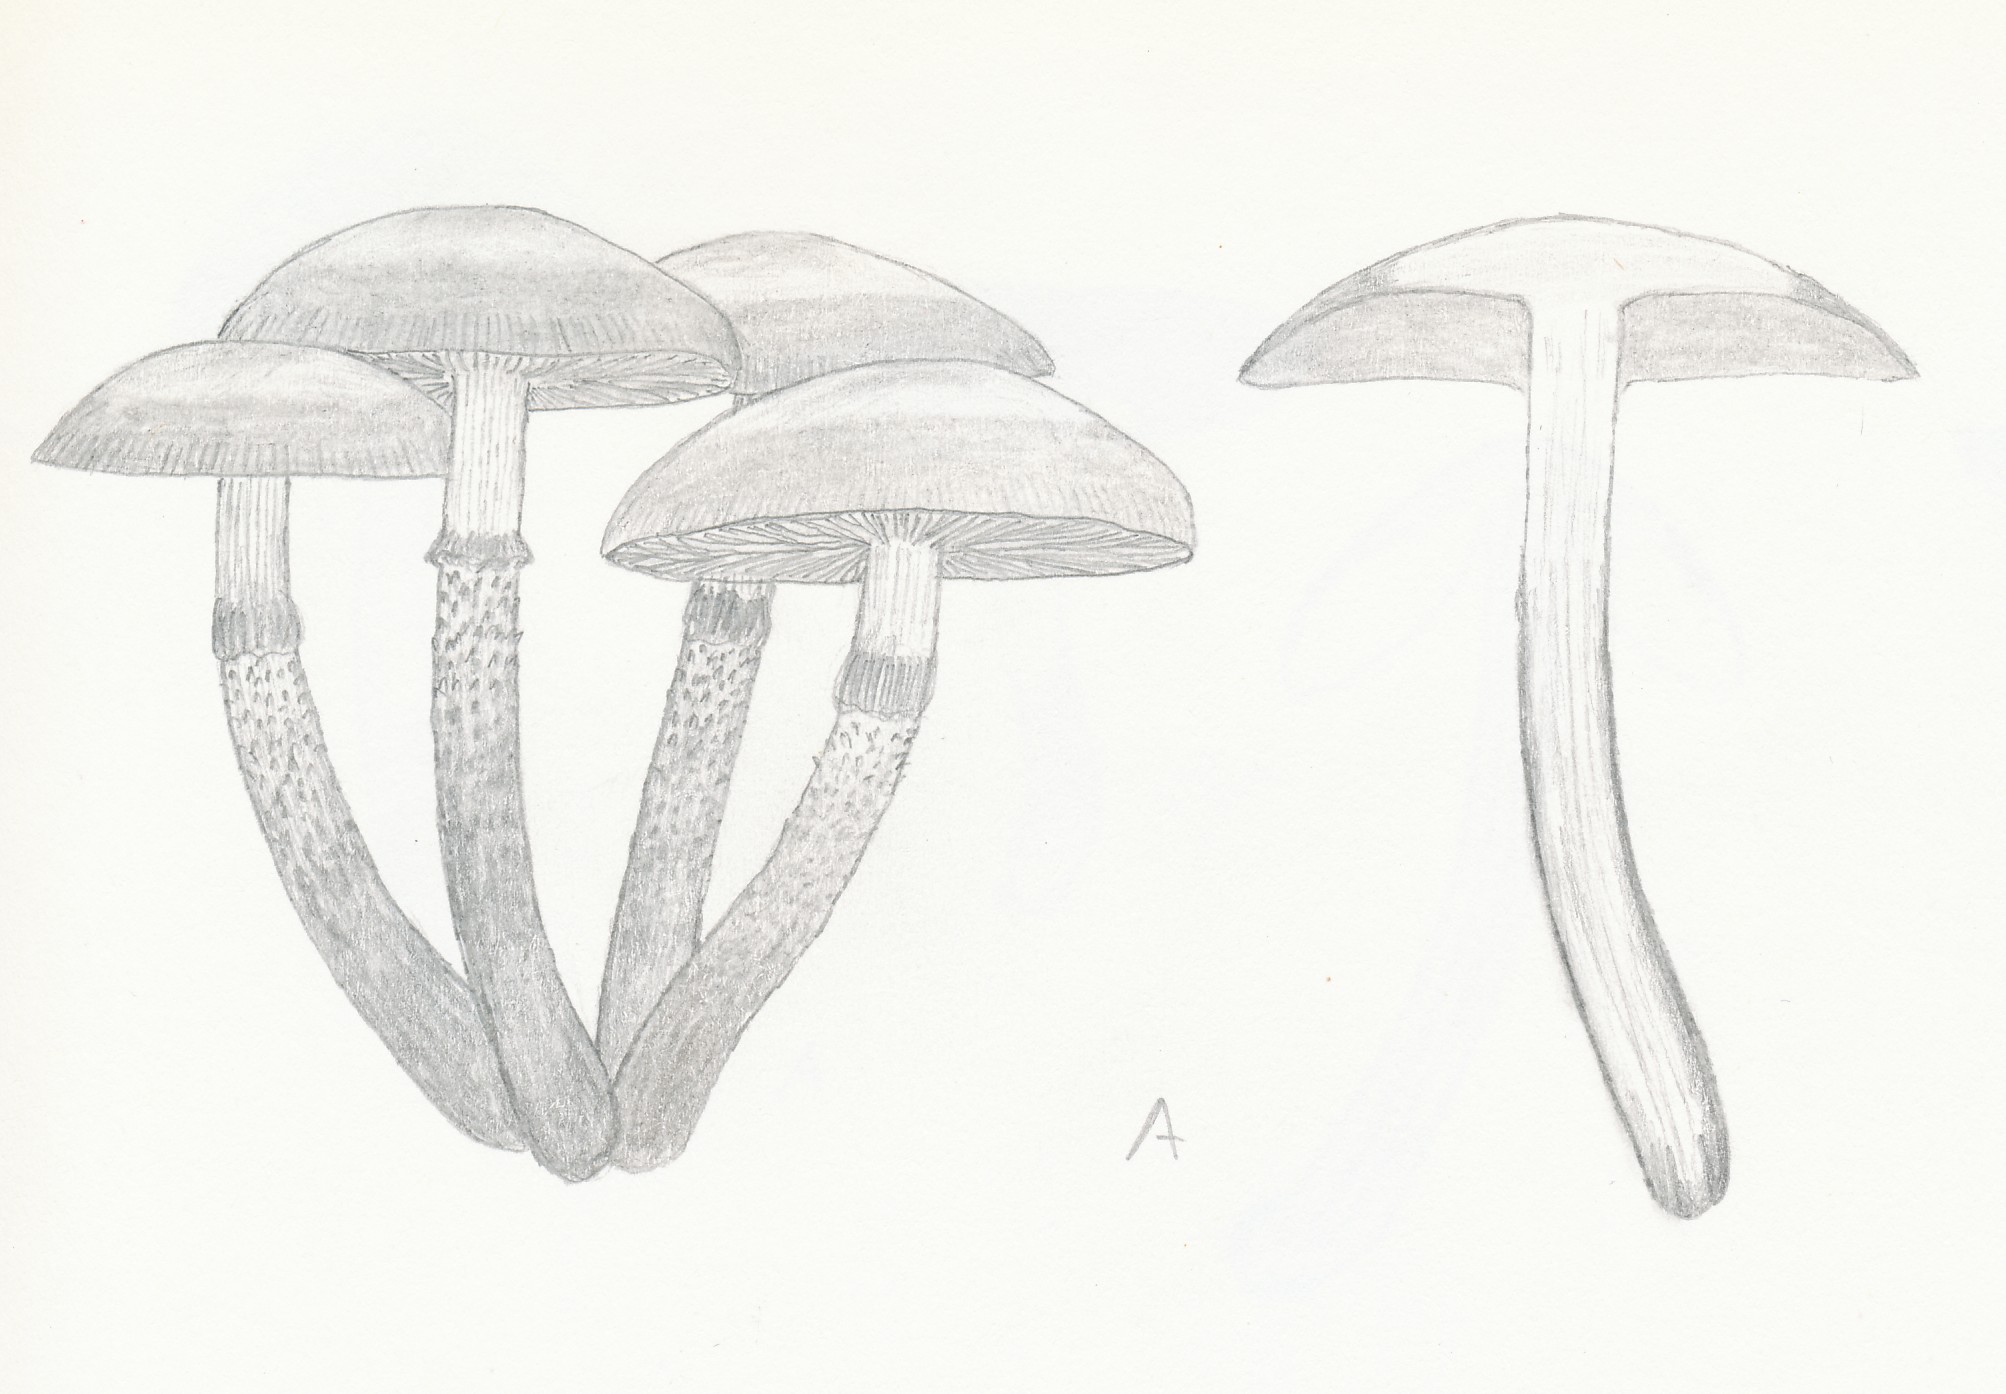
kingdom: Fungi
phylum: Basidiomycota
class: Agaricomycetes
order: Agaricales
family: Strophariaceae
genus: Kuehneromyces
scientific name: Kuehneromyces mutabilis
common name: foranderlig skælhat
